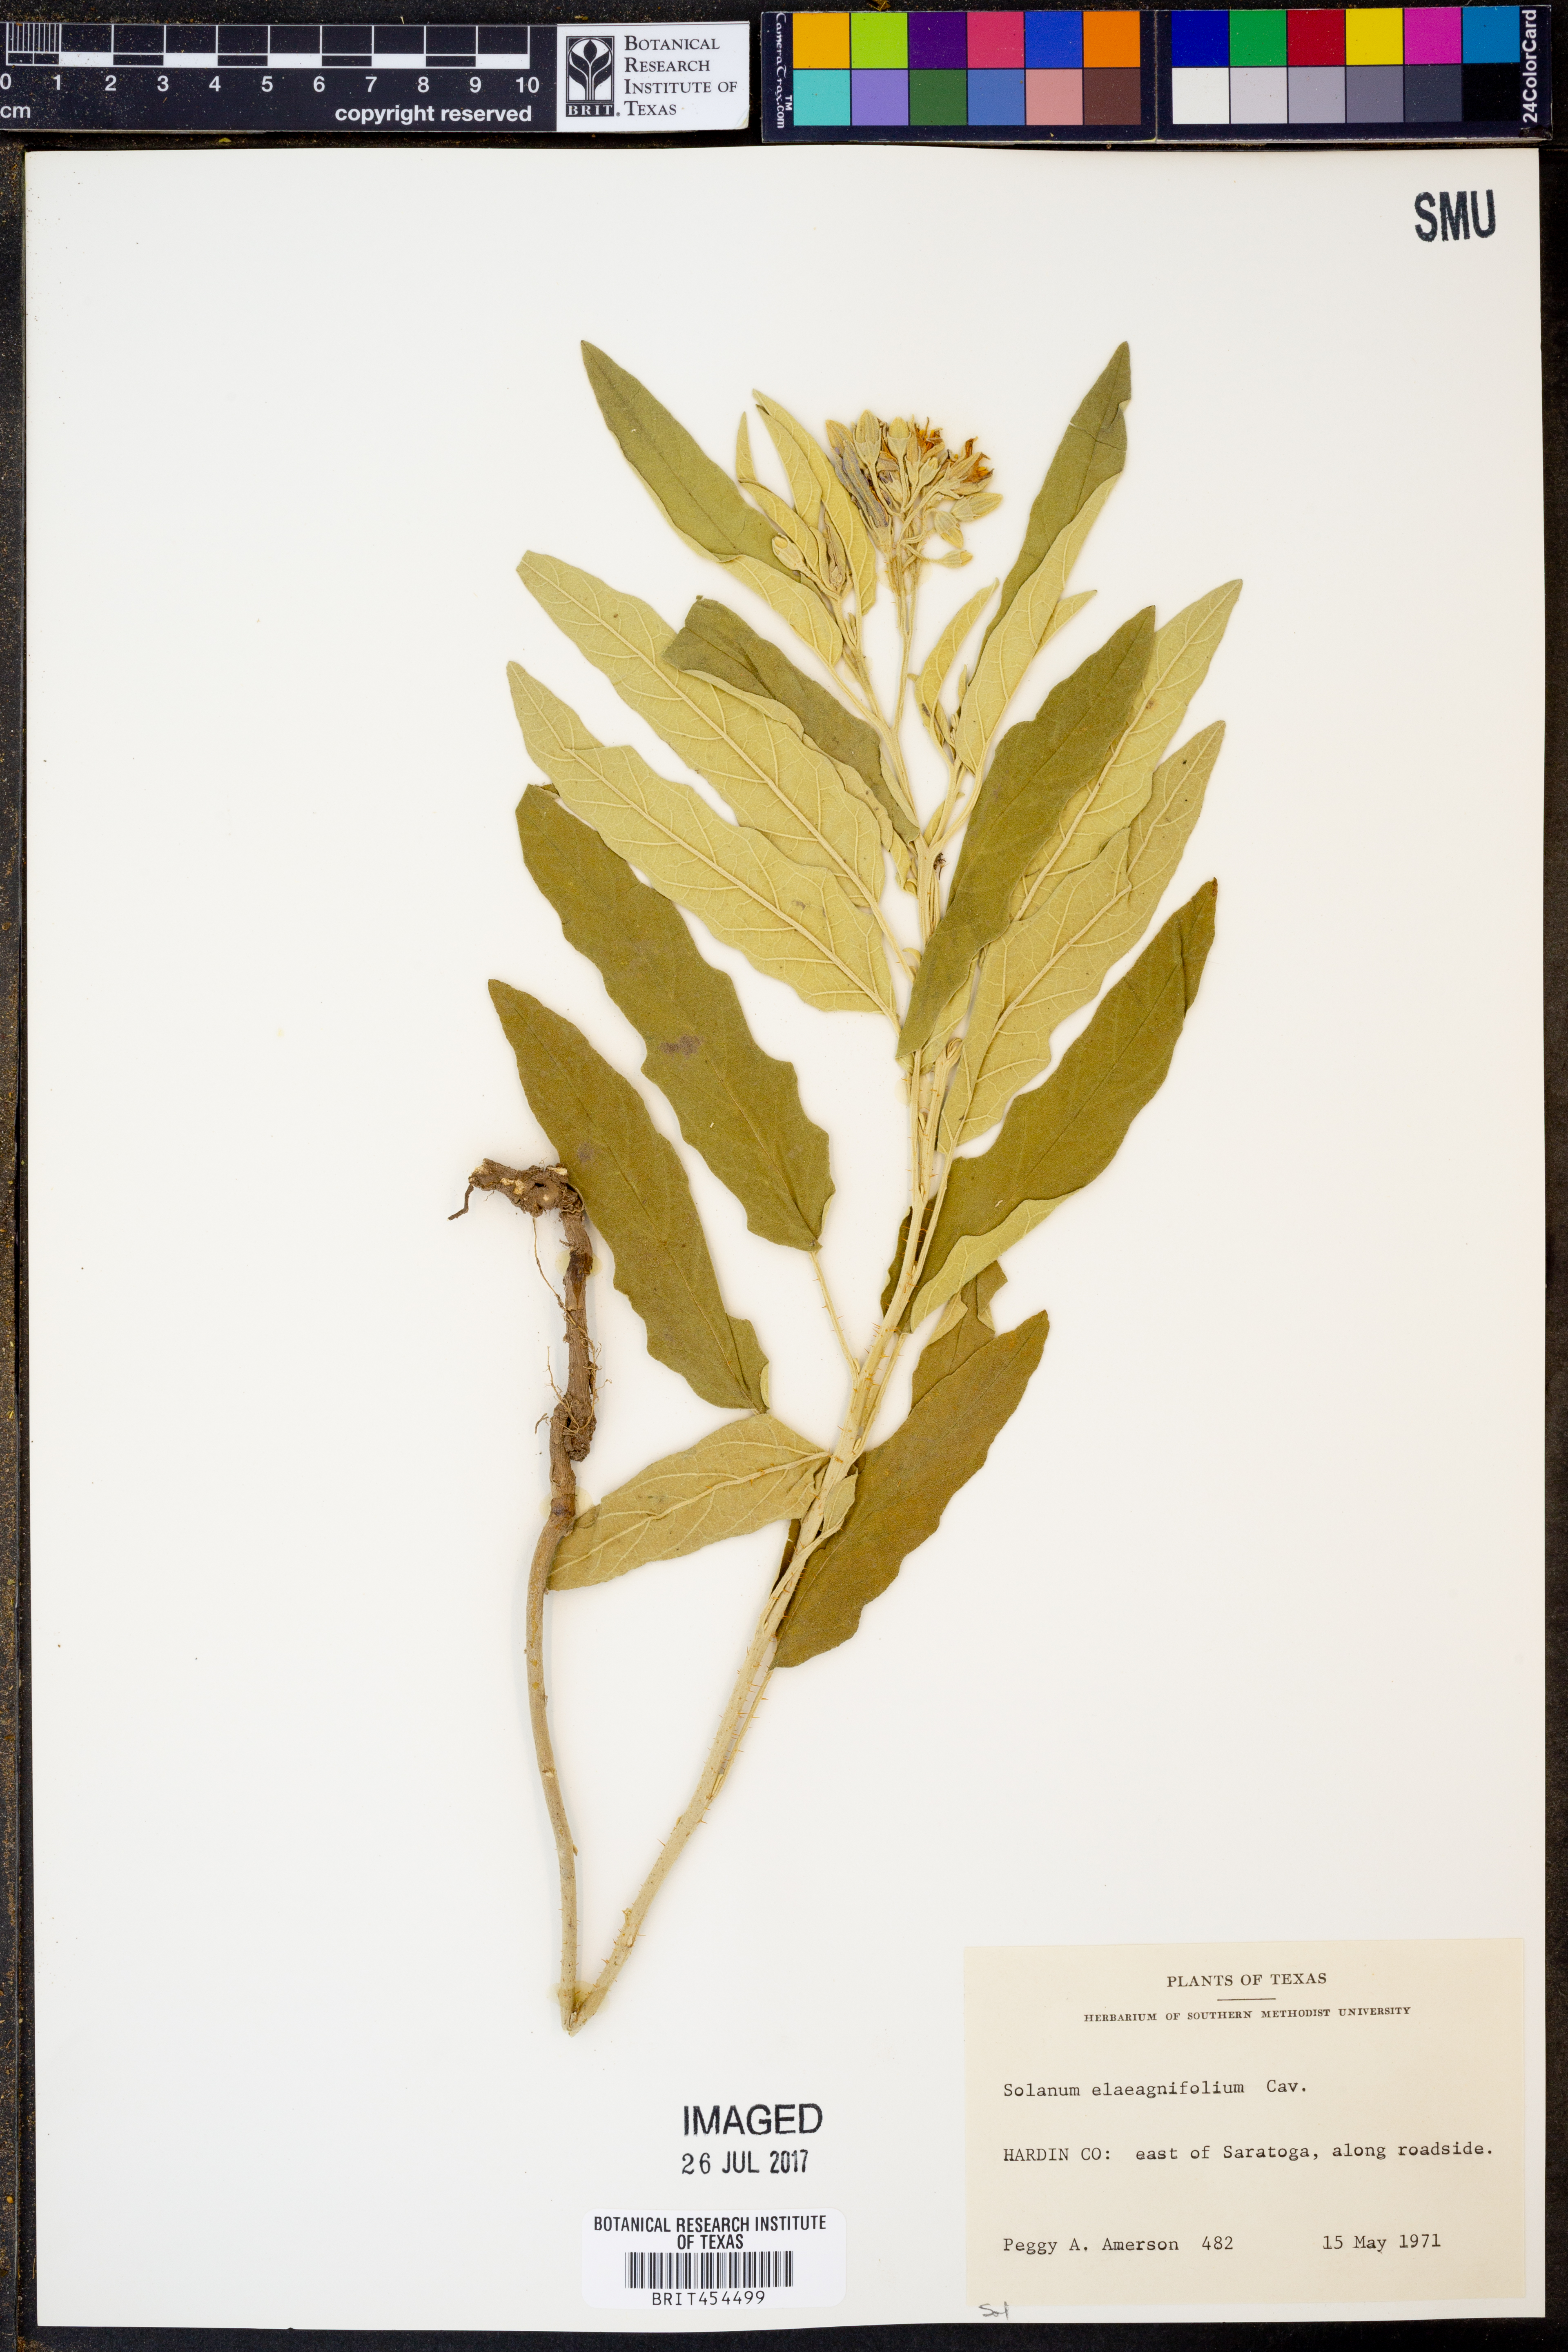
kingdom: Plantae
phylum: Tracheophyta
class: Magnoliopsida
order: Solanales
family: Solanaceae
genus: Solanum
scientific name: Solanum elaeagnifolium
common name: Silverleaf nightshade
